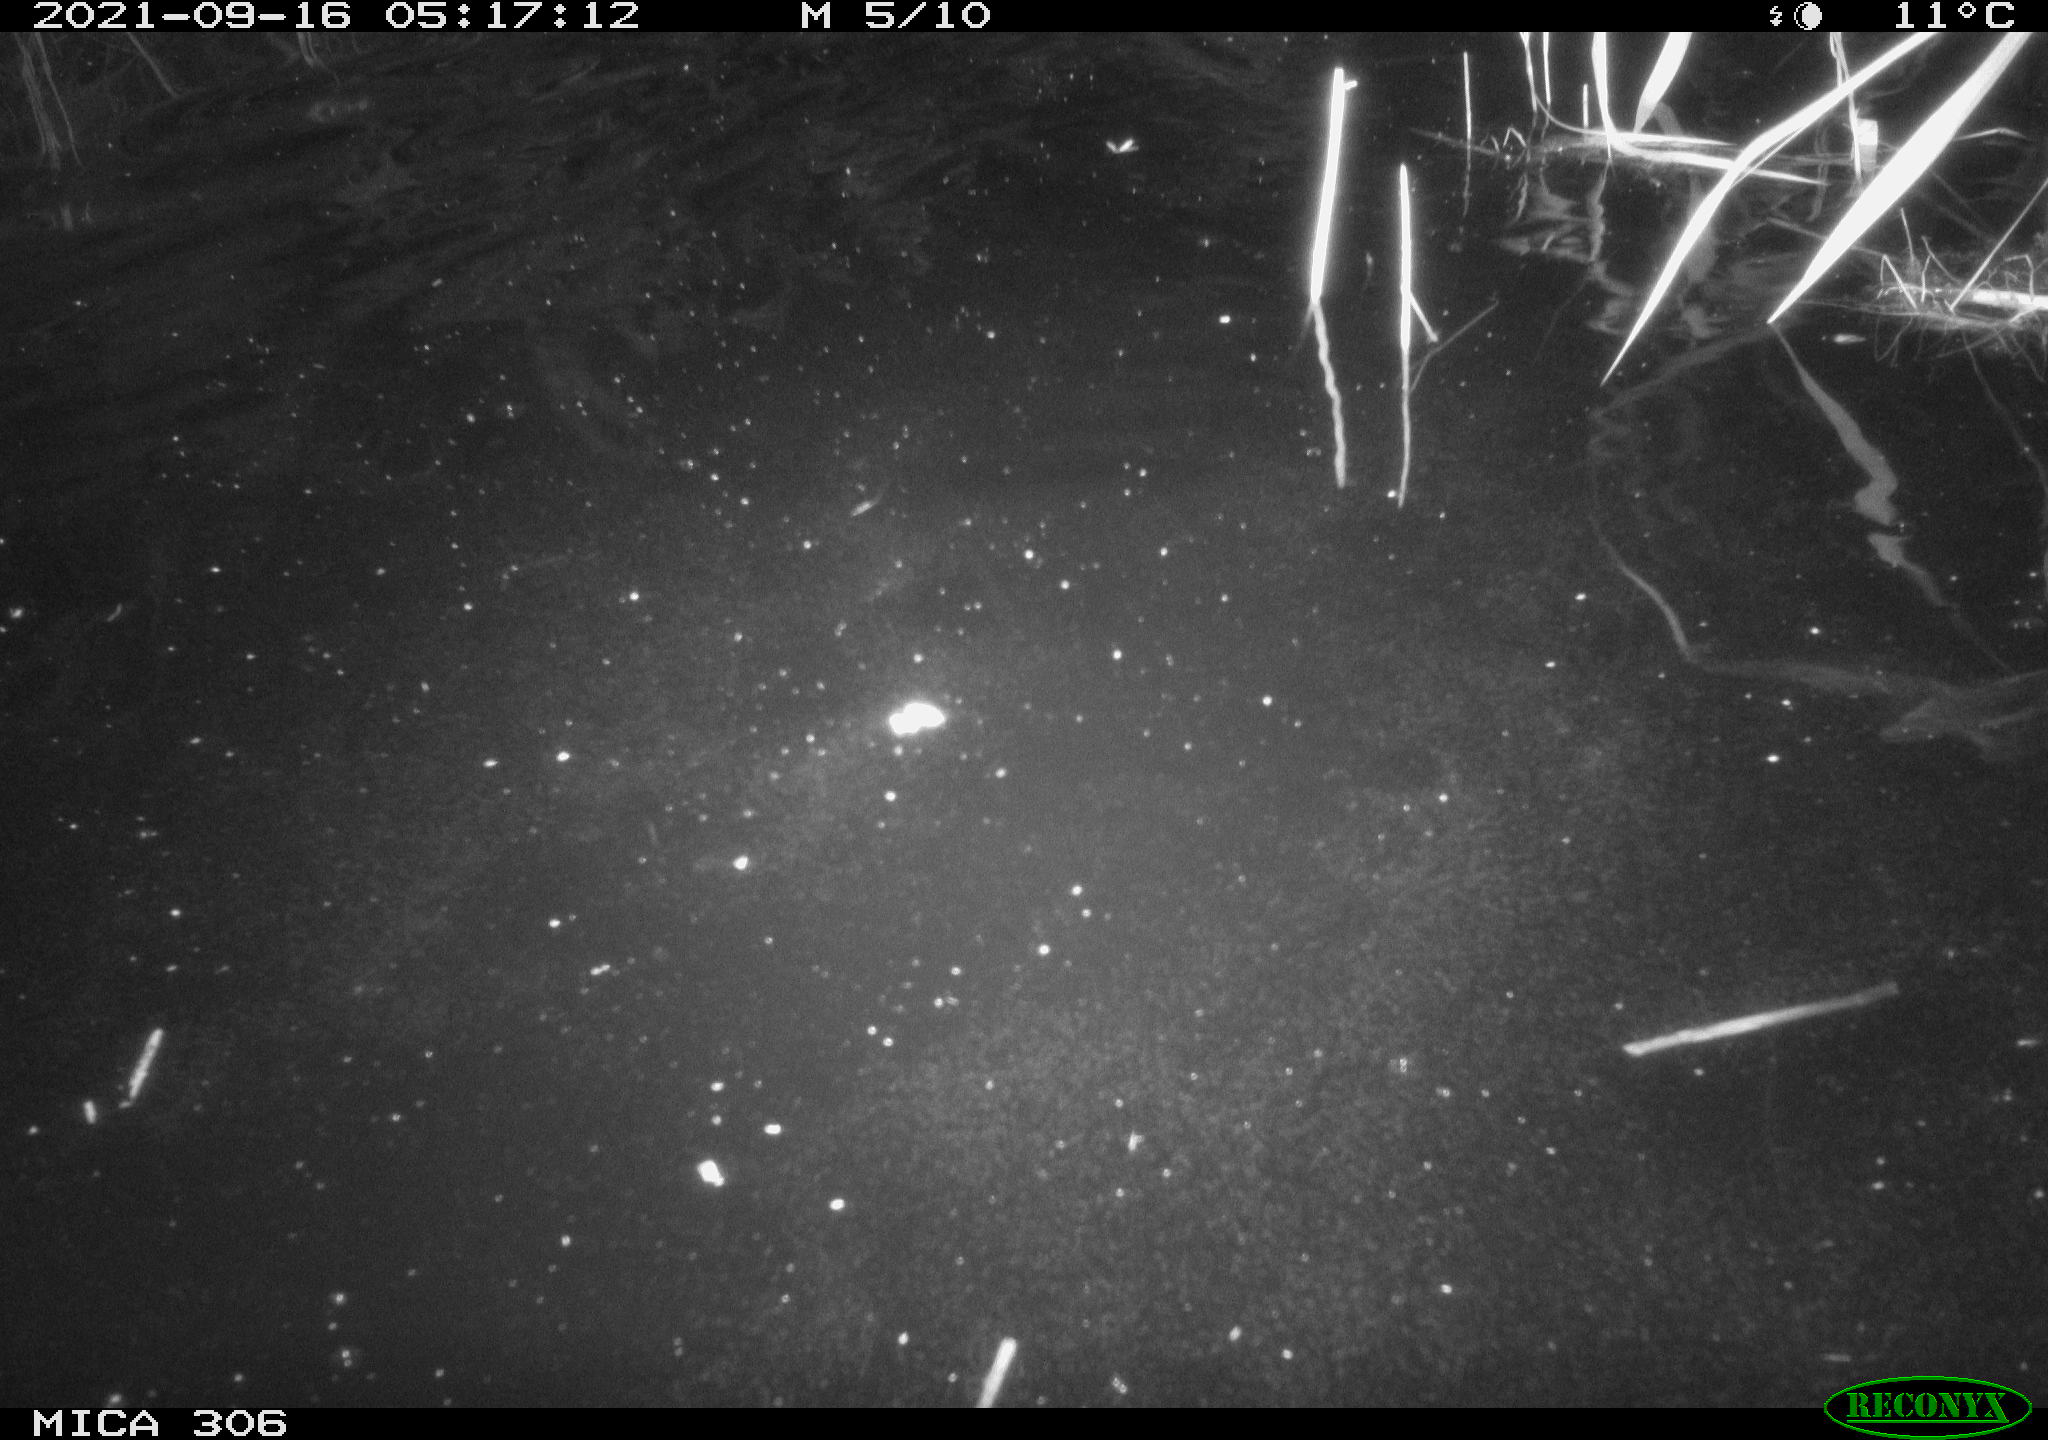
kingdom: Animalia
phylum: Chordata
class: Mammalia
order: Rodentia
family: Cricetidae
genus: Ondatra
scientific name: Ondatra zibethicus
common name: Muskrat
